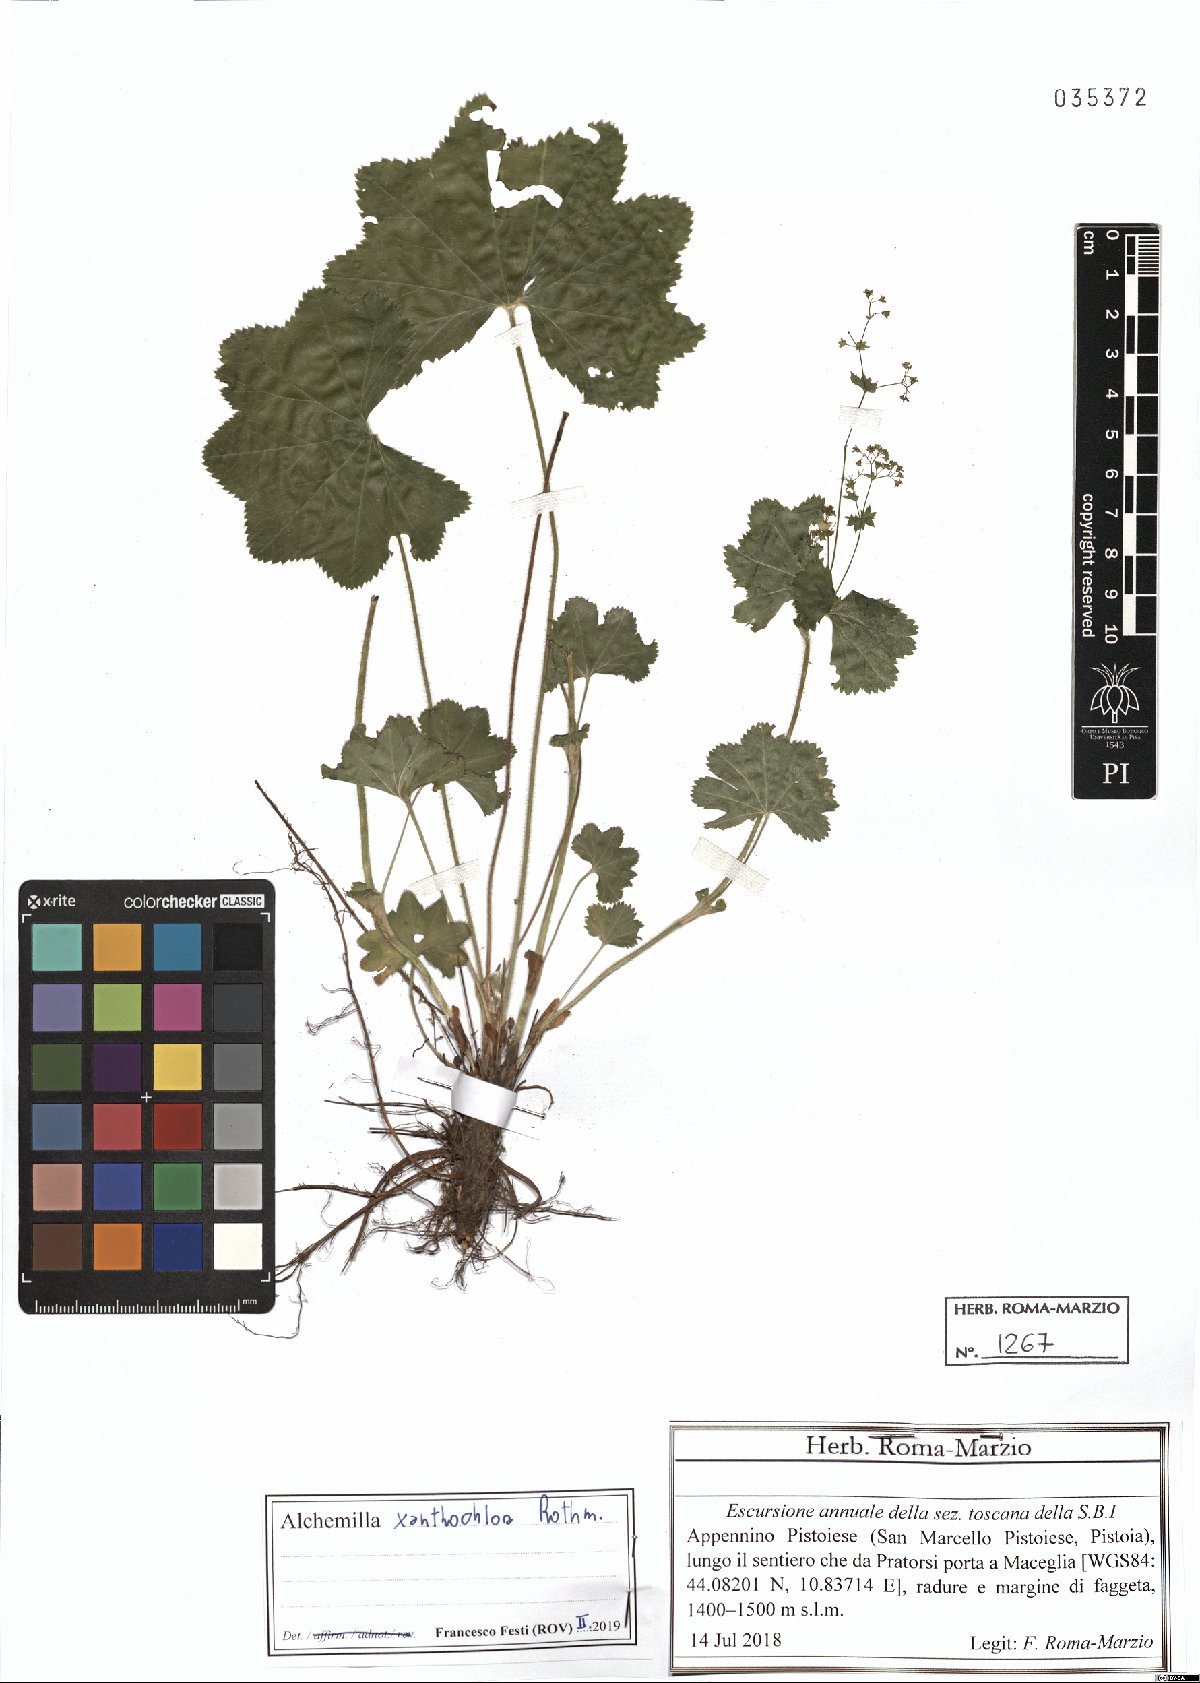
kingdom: Plantae
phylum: Tracheophyta
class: Magnoliopsida
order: Rosales
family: Rosaceae
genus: Alchemilla
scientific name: Alchemilla xanthochlora
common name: Intermediate lady's-mantle
